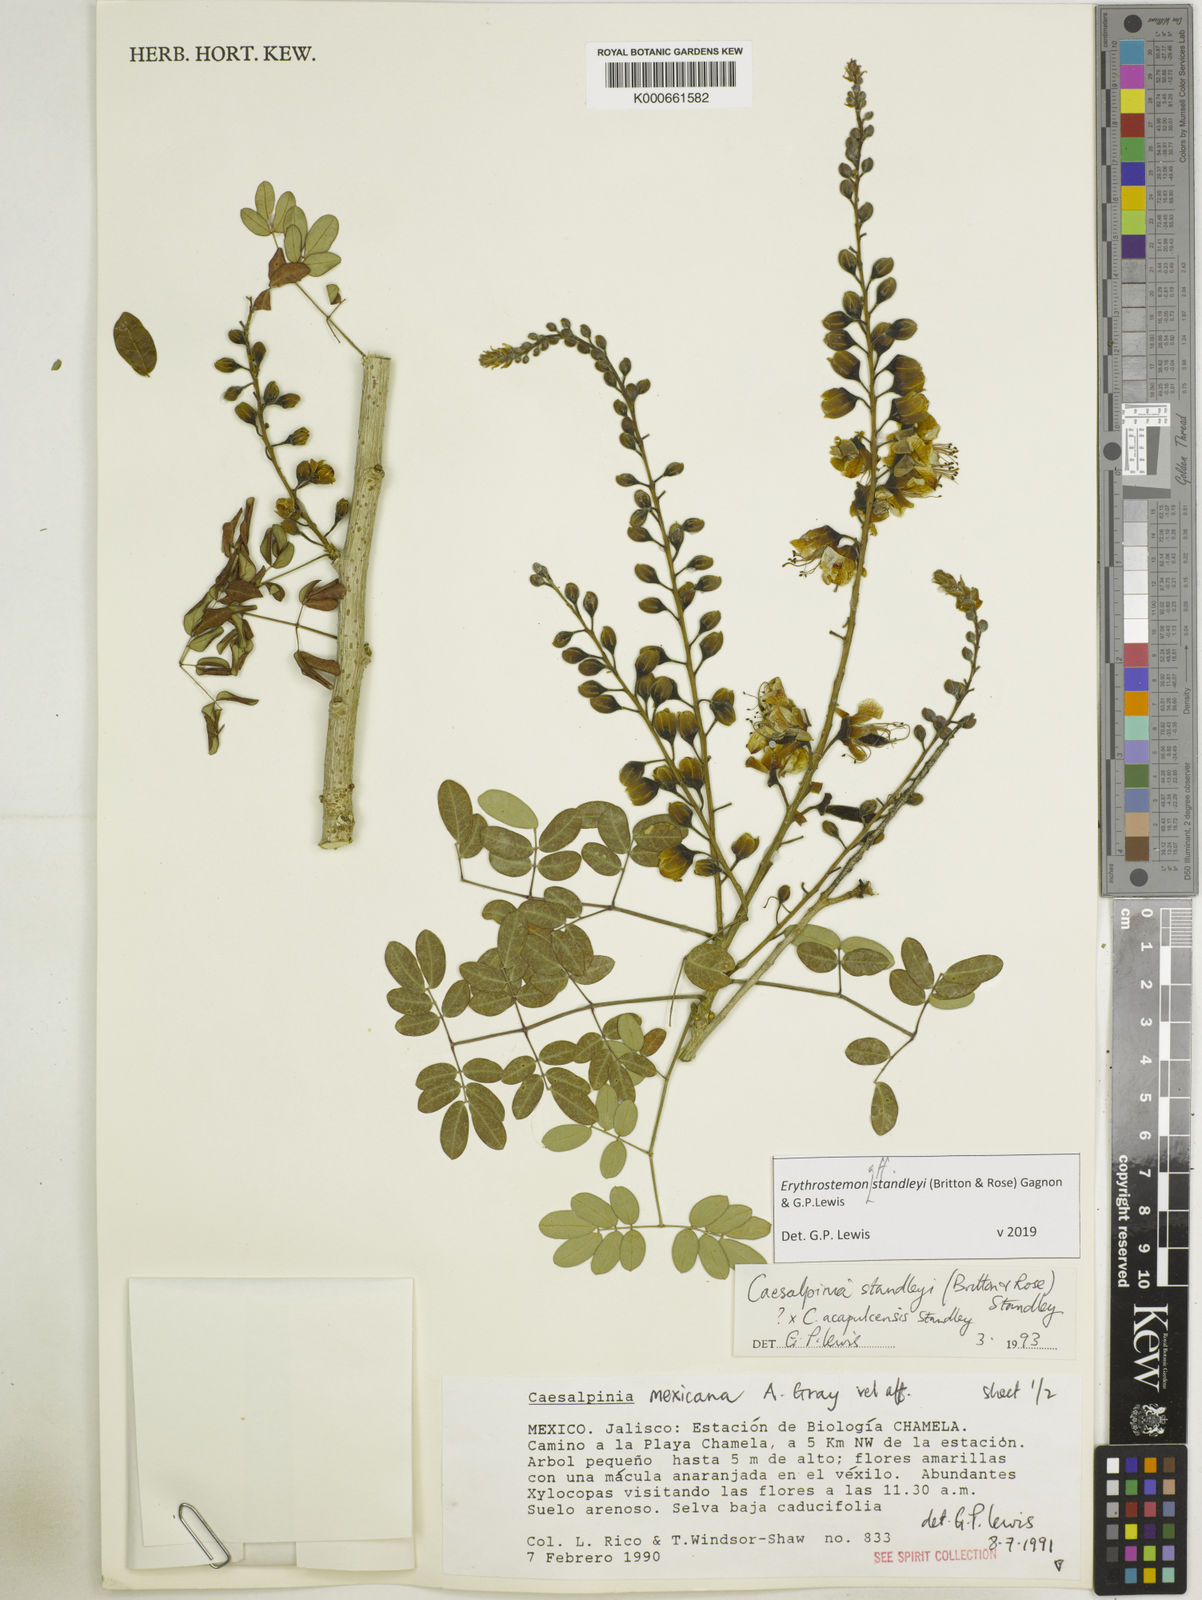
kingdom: Plantae
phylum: Tracheophyta
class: Magnoliopsida
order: Fabales
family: Fabaceae
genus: Erythrostemon
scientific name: Erythrostemon standleyi
